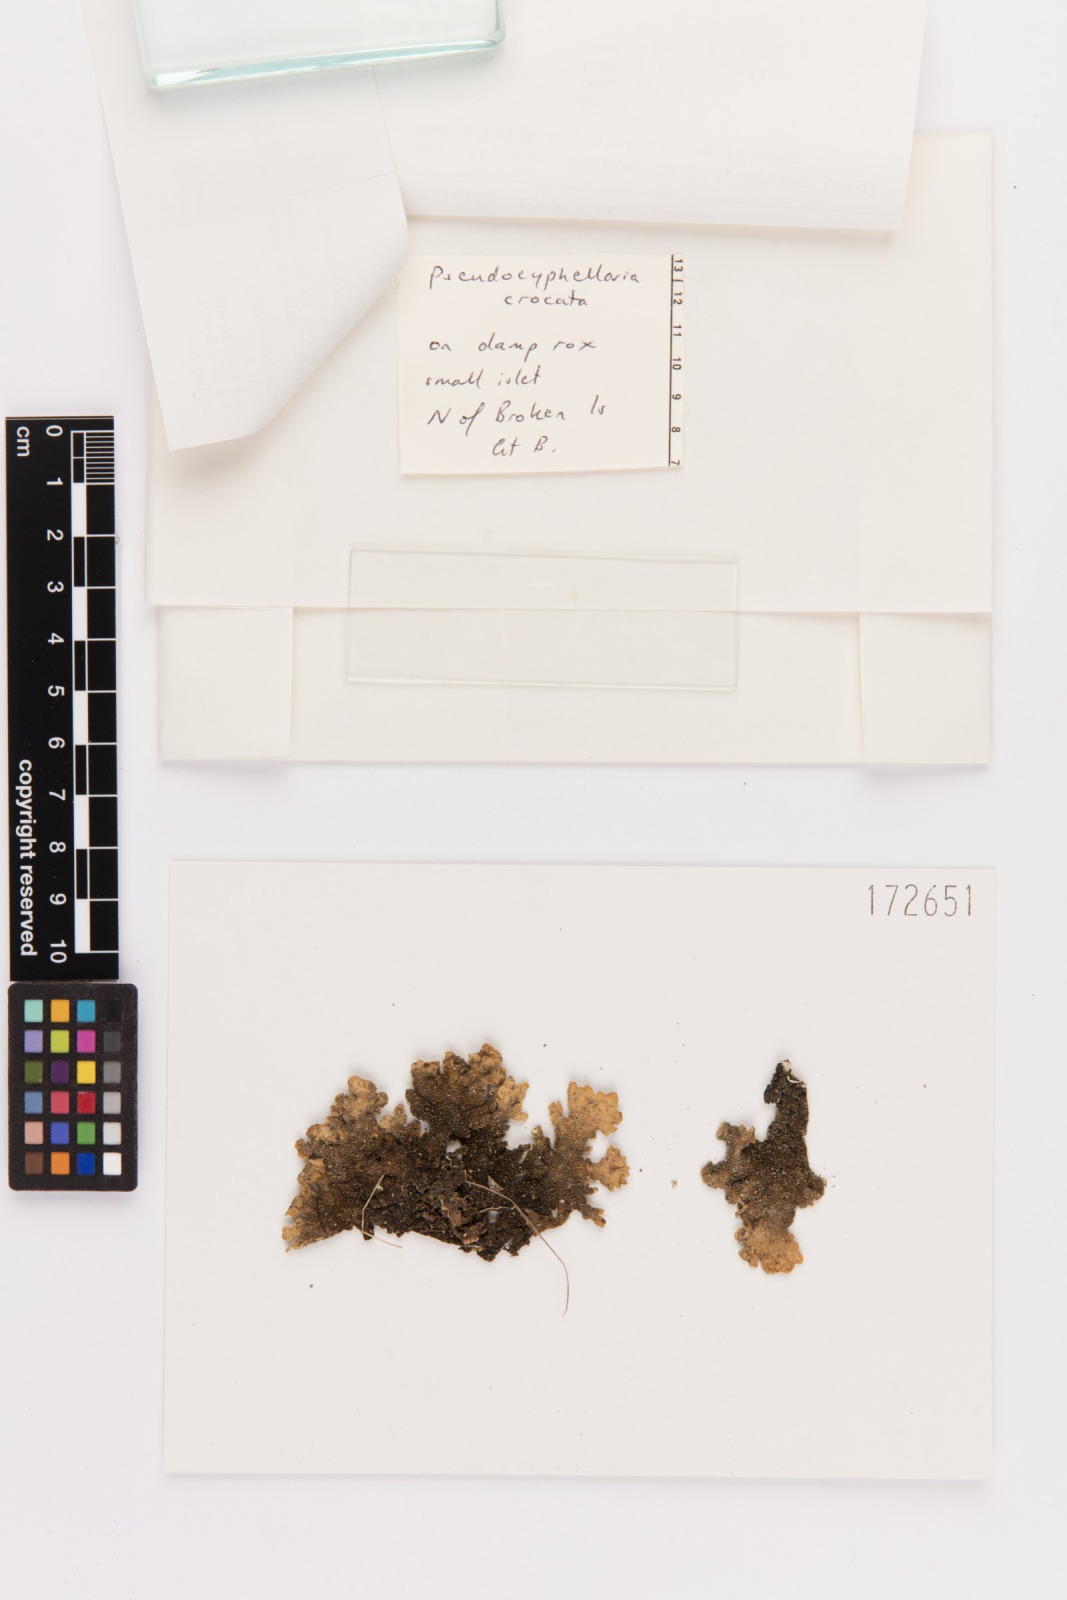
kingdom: Fungi
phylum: Ascomycota
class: Lecanoromycetes
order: Peltigerales
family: Lobariaceae
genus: Pseudocyphellaria
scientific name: Pseudocyphellaria crocata
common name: Golden specklebelly
